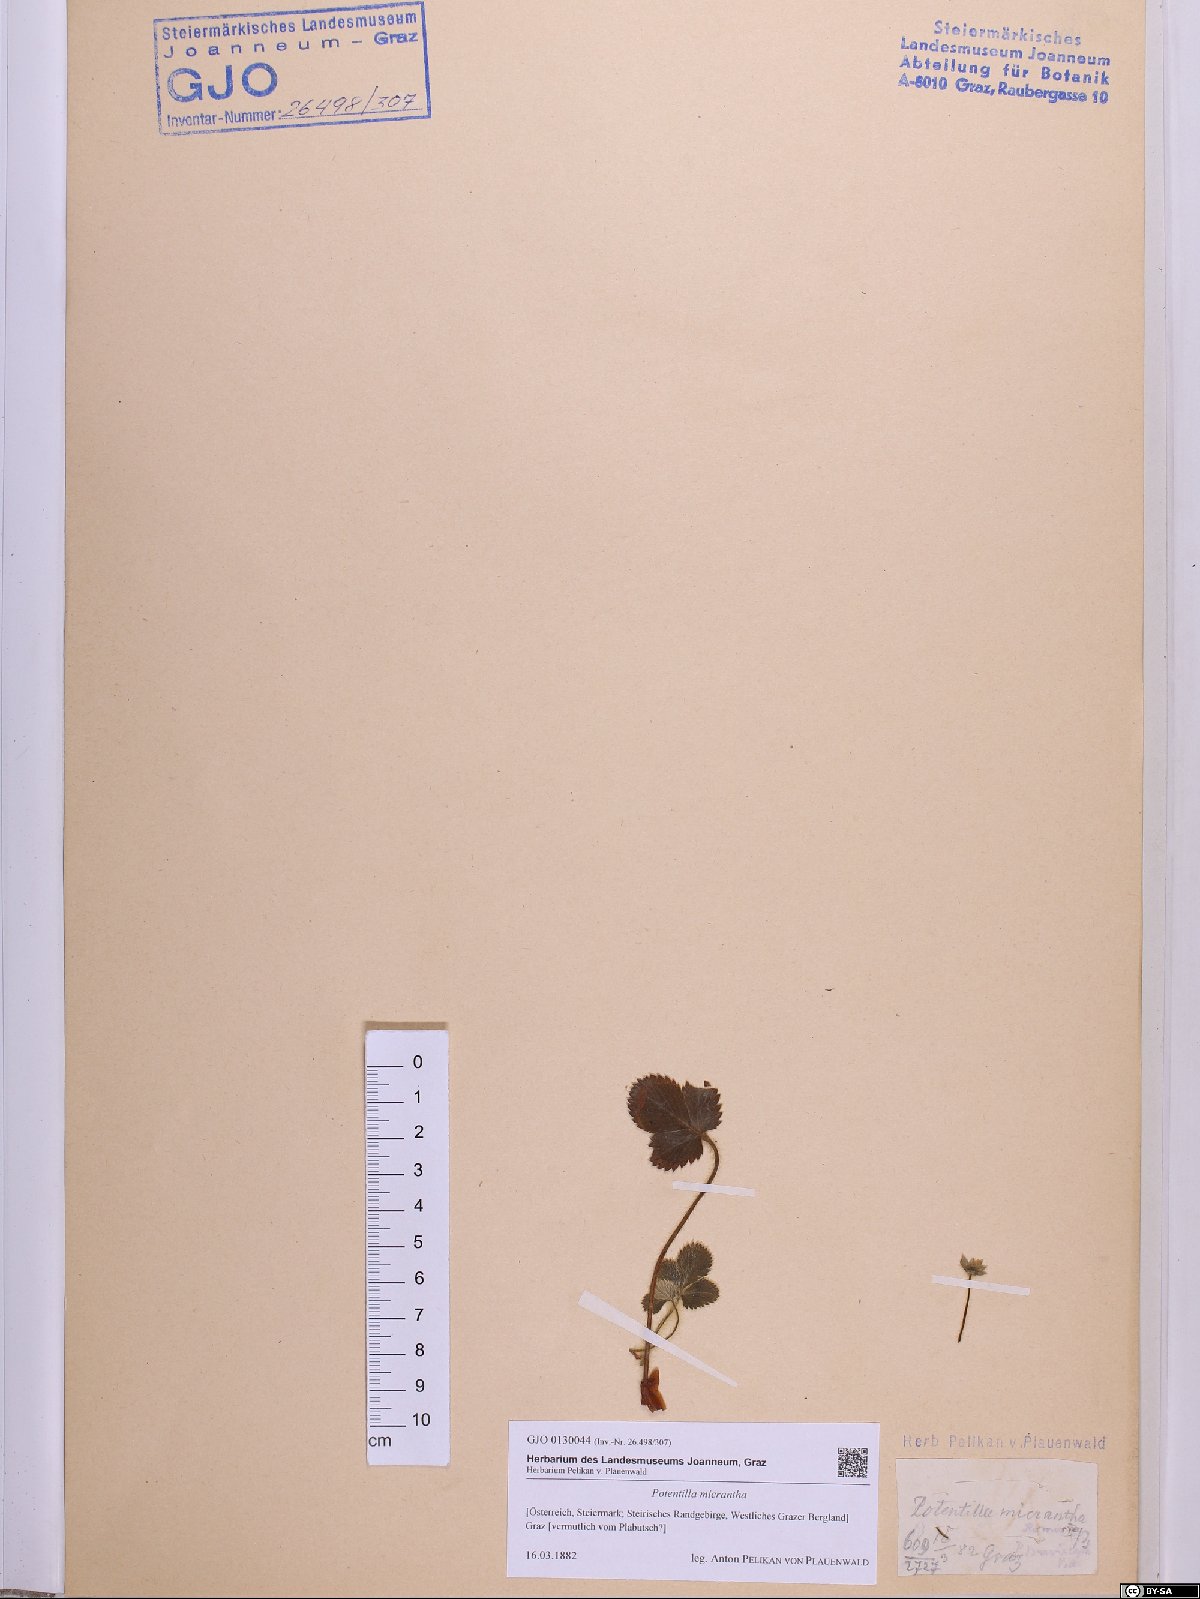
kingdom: Plantae
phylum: Tracheophyta
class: Magnoliopsida
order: Rosales
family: Rosaceae
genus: Potentilla
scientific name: Potentilla micrantha
